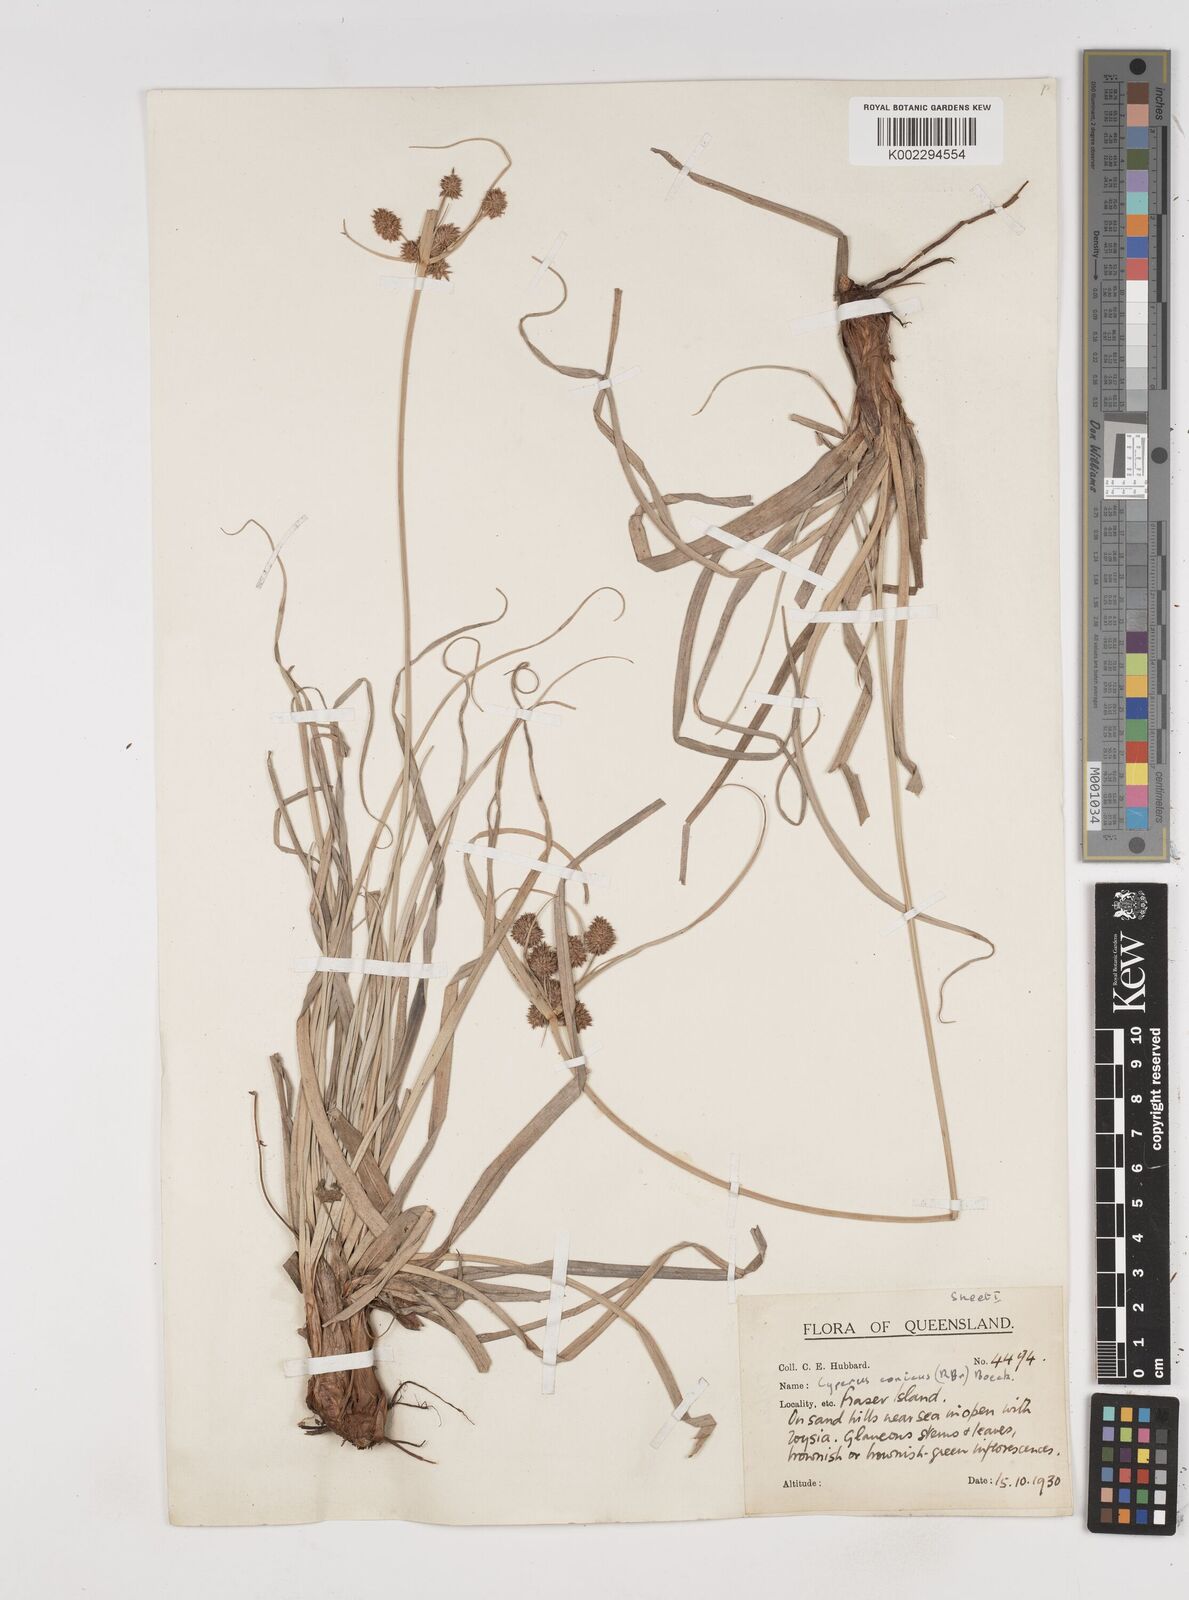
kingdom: Plantae
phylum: Tracheophyta
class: Liliopsida
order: Poales
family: Cyperaceae
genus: Cyperus
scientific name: Cyperus conicus
